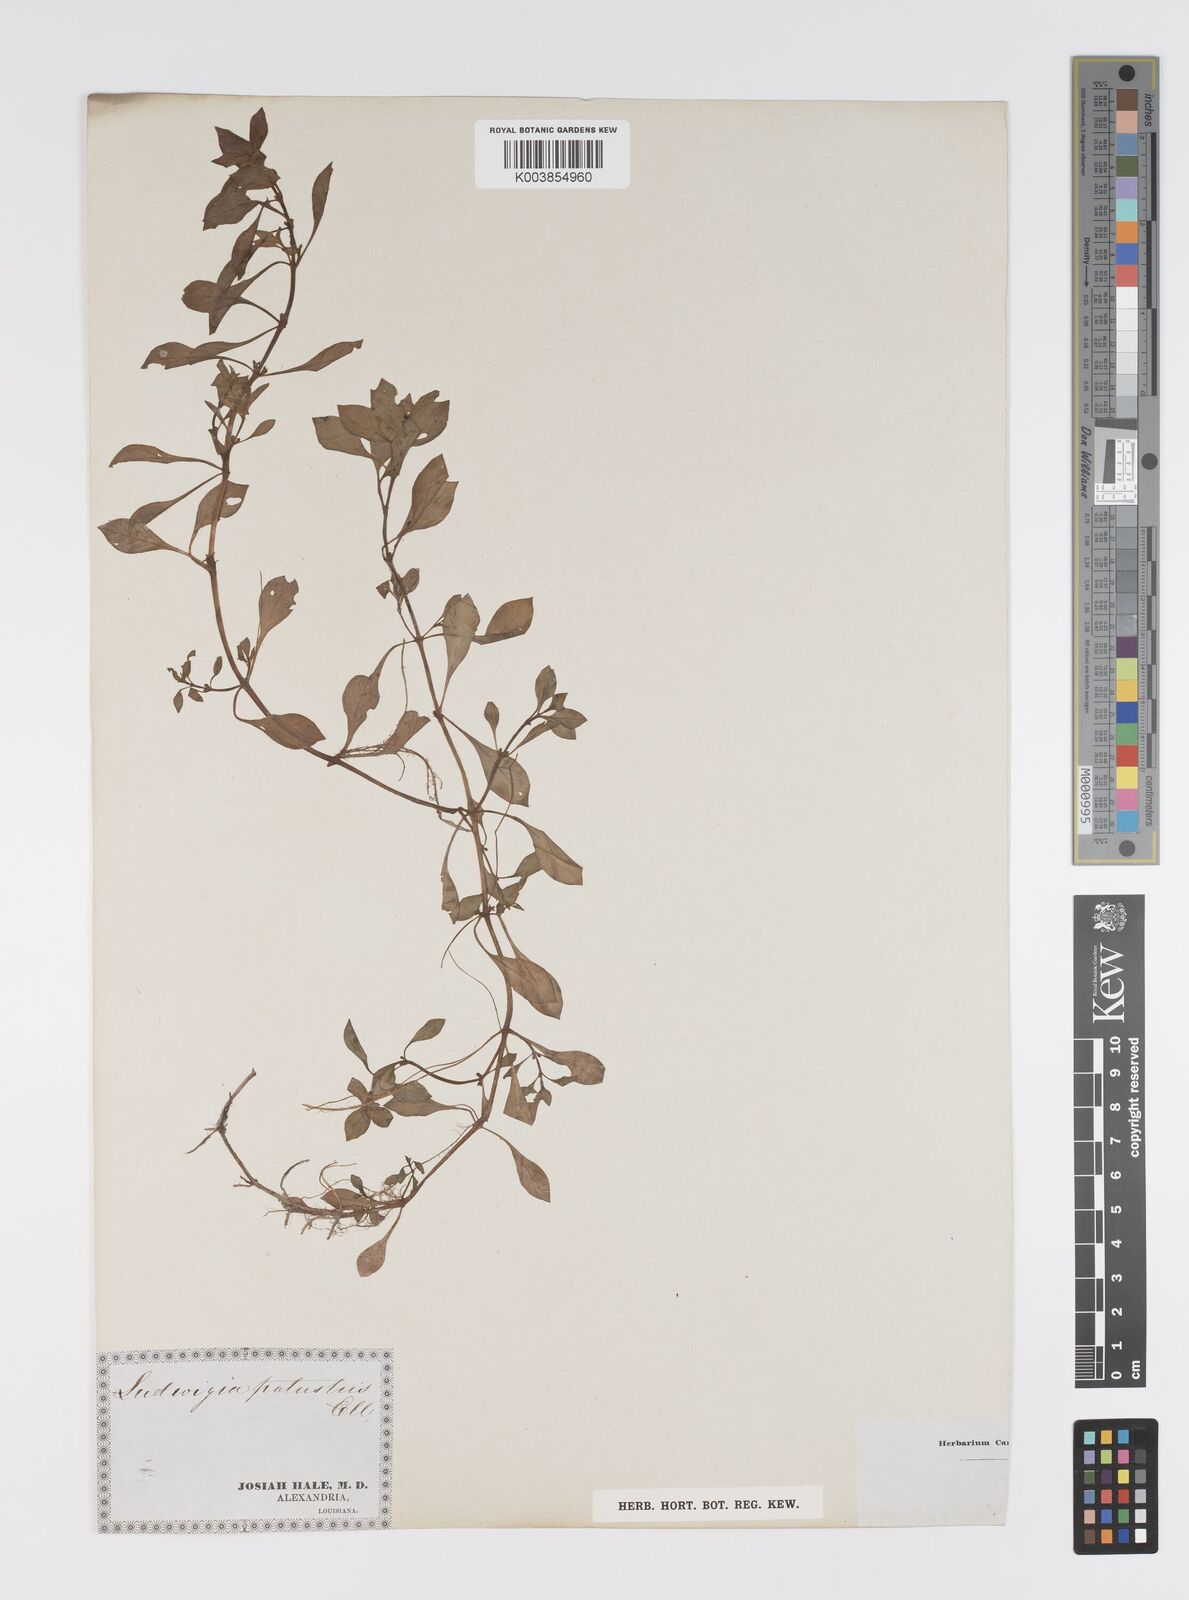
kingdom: Plantae
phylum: Tracheophyta
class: Magnoliopsida
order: Myrtales
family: Onagraceae
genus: Ludwigia
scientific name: Ludwigia palustris
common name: Hampshire-purslane
